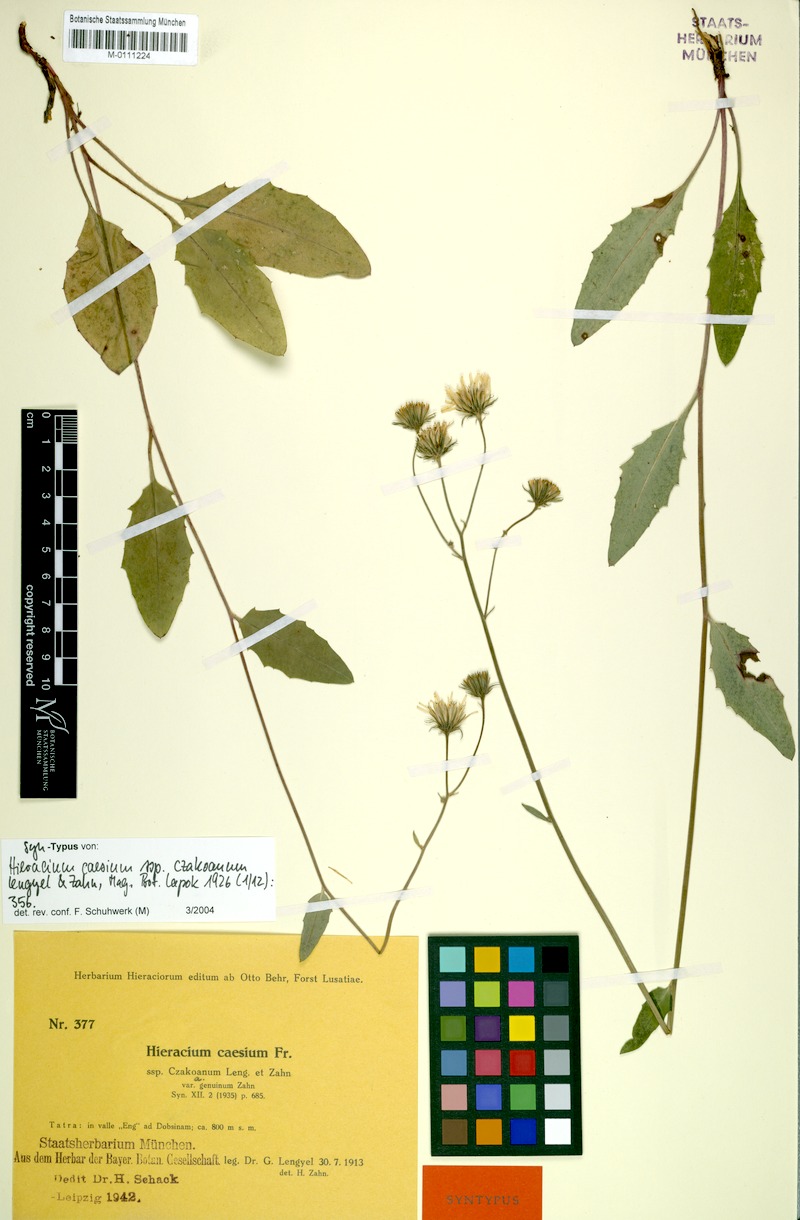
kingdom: Plantae
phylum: Tracheophyta
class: Magnoliopsida
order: Asterales
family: Asteraceae
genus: Hieracium
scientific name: Hieracium caesium
